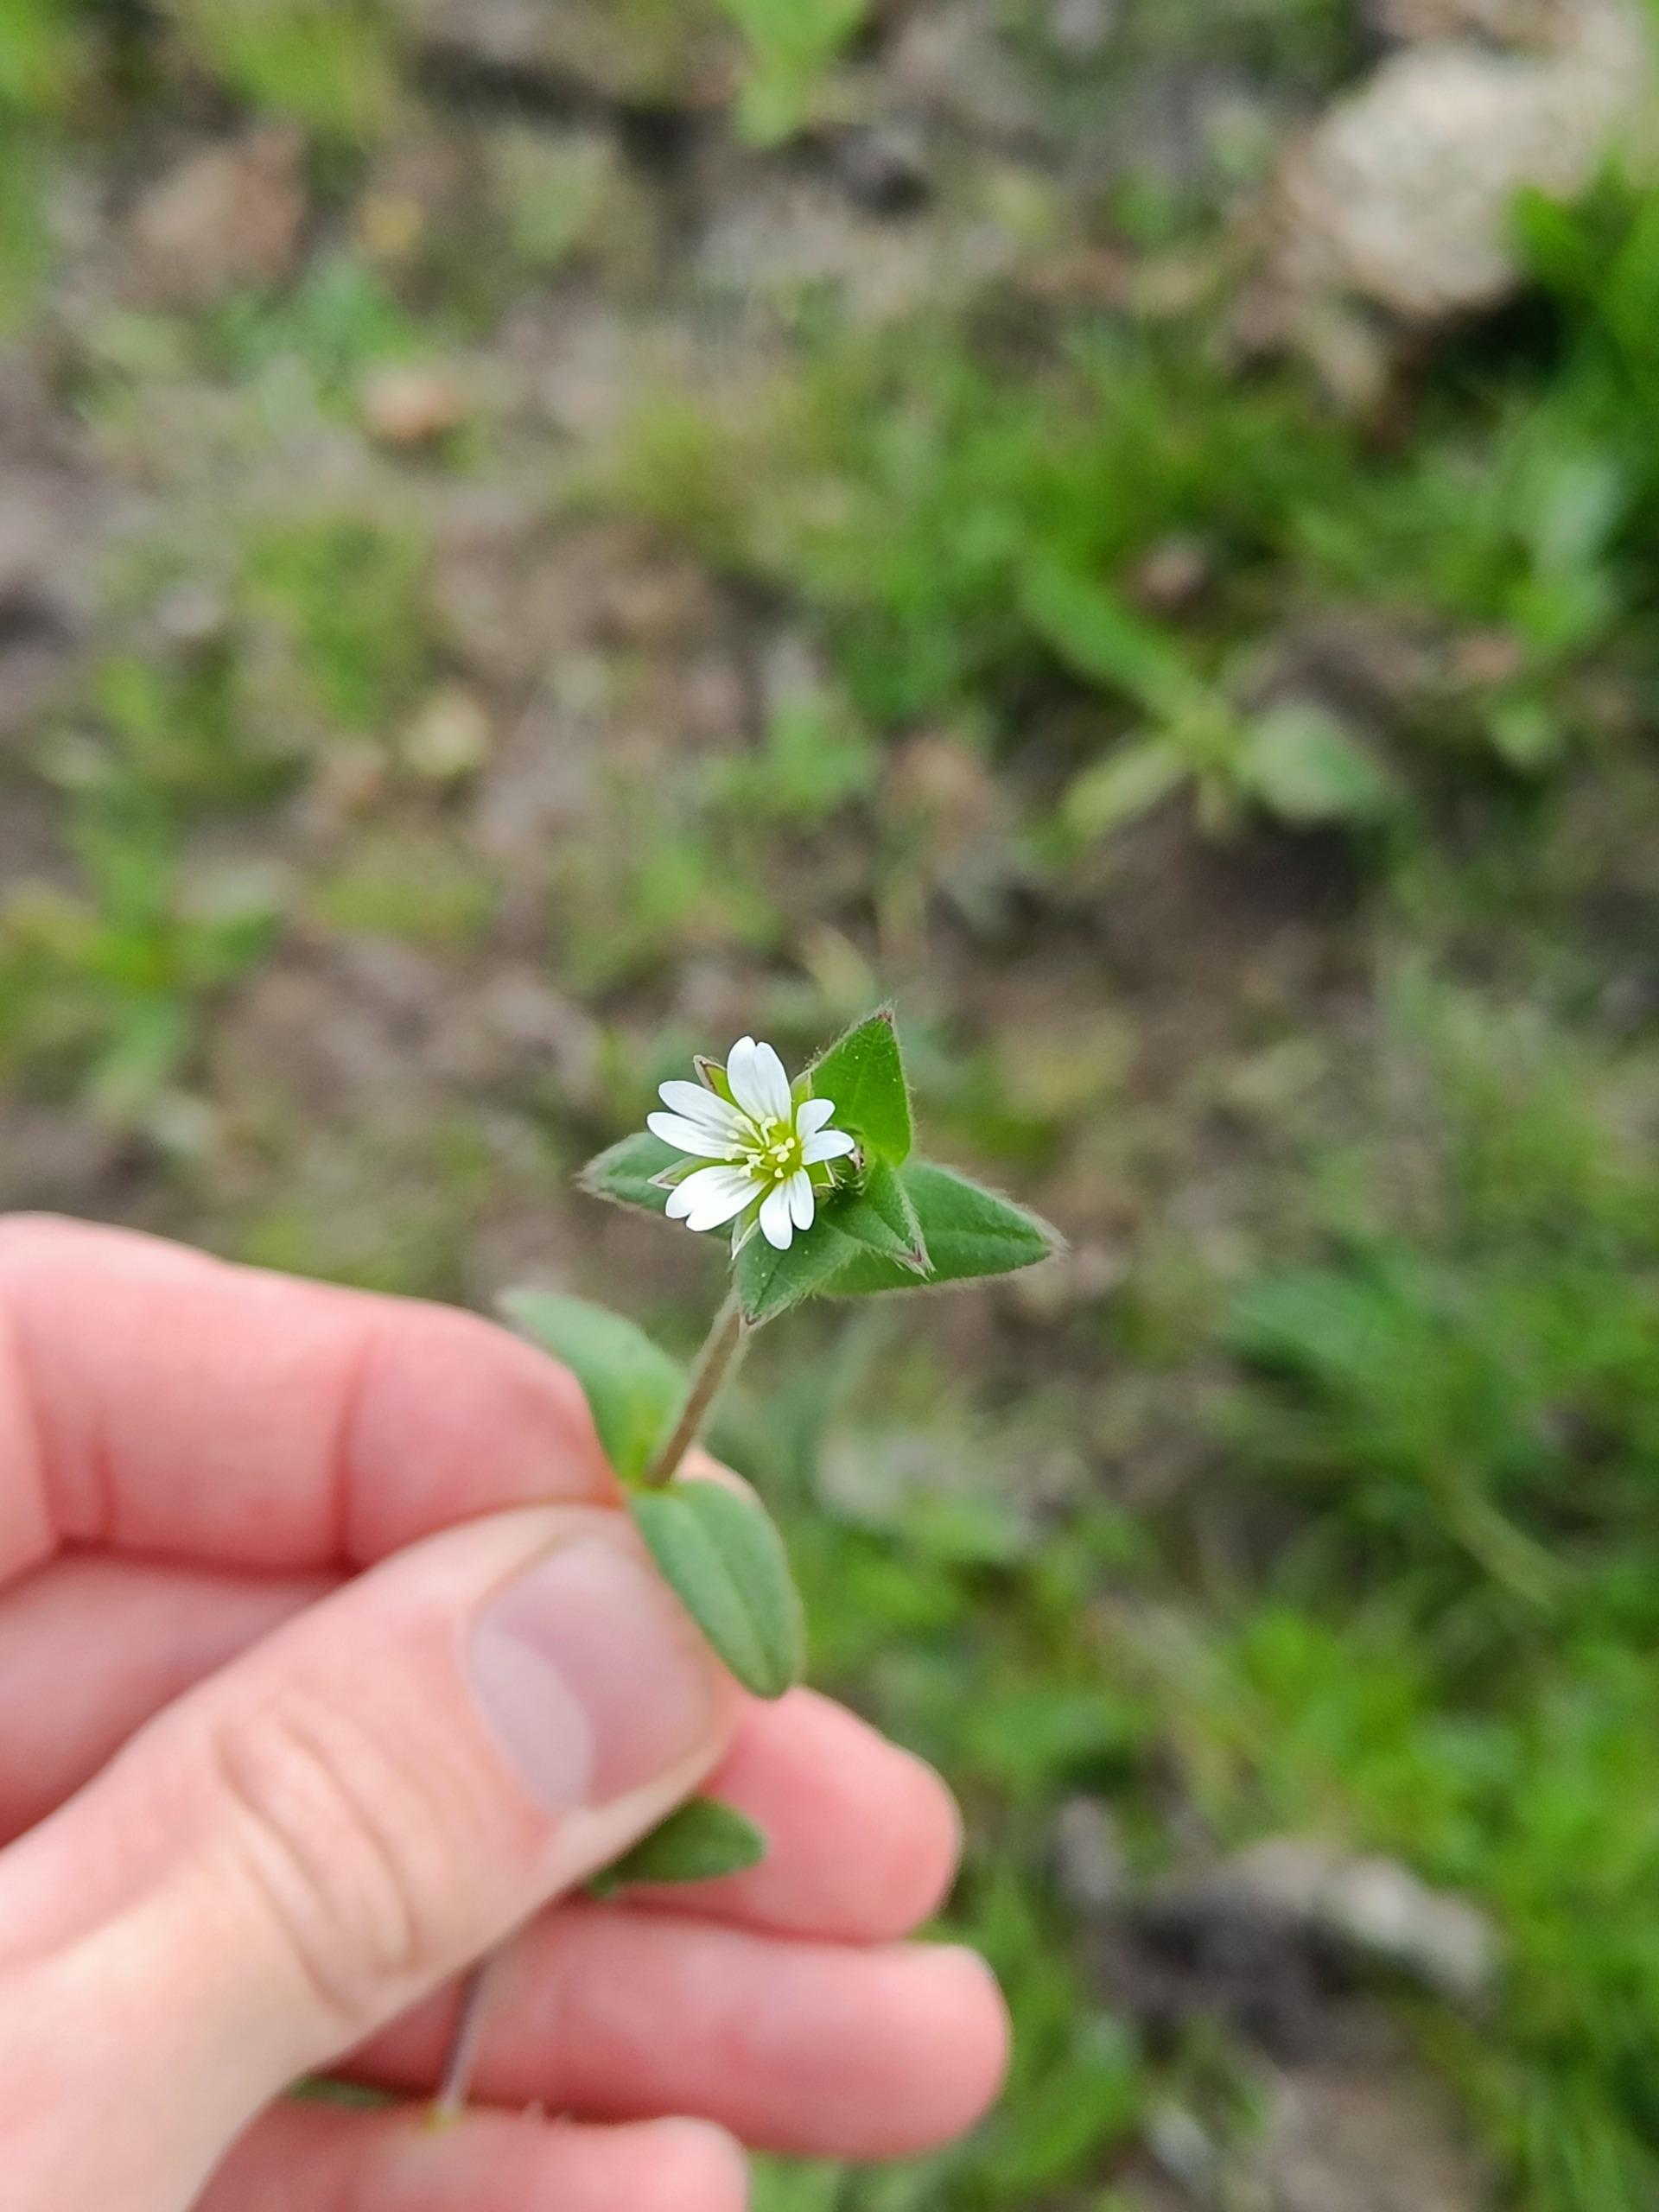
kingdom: Plantae
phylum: Tracheophyta
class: Magnoliopsida
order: Caryophyllales
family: Caryophyllaceae
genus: Cerastium
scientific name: Cerastium fontanum
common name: Almindelig hønsetarm
